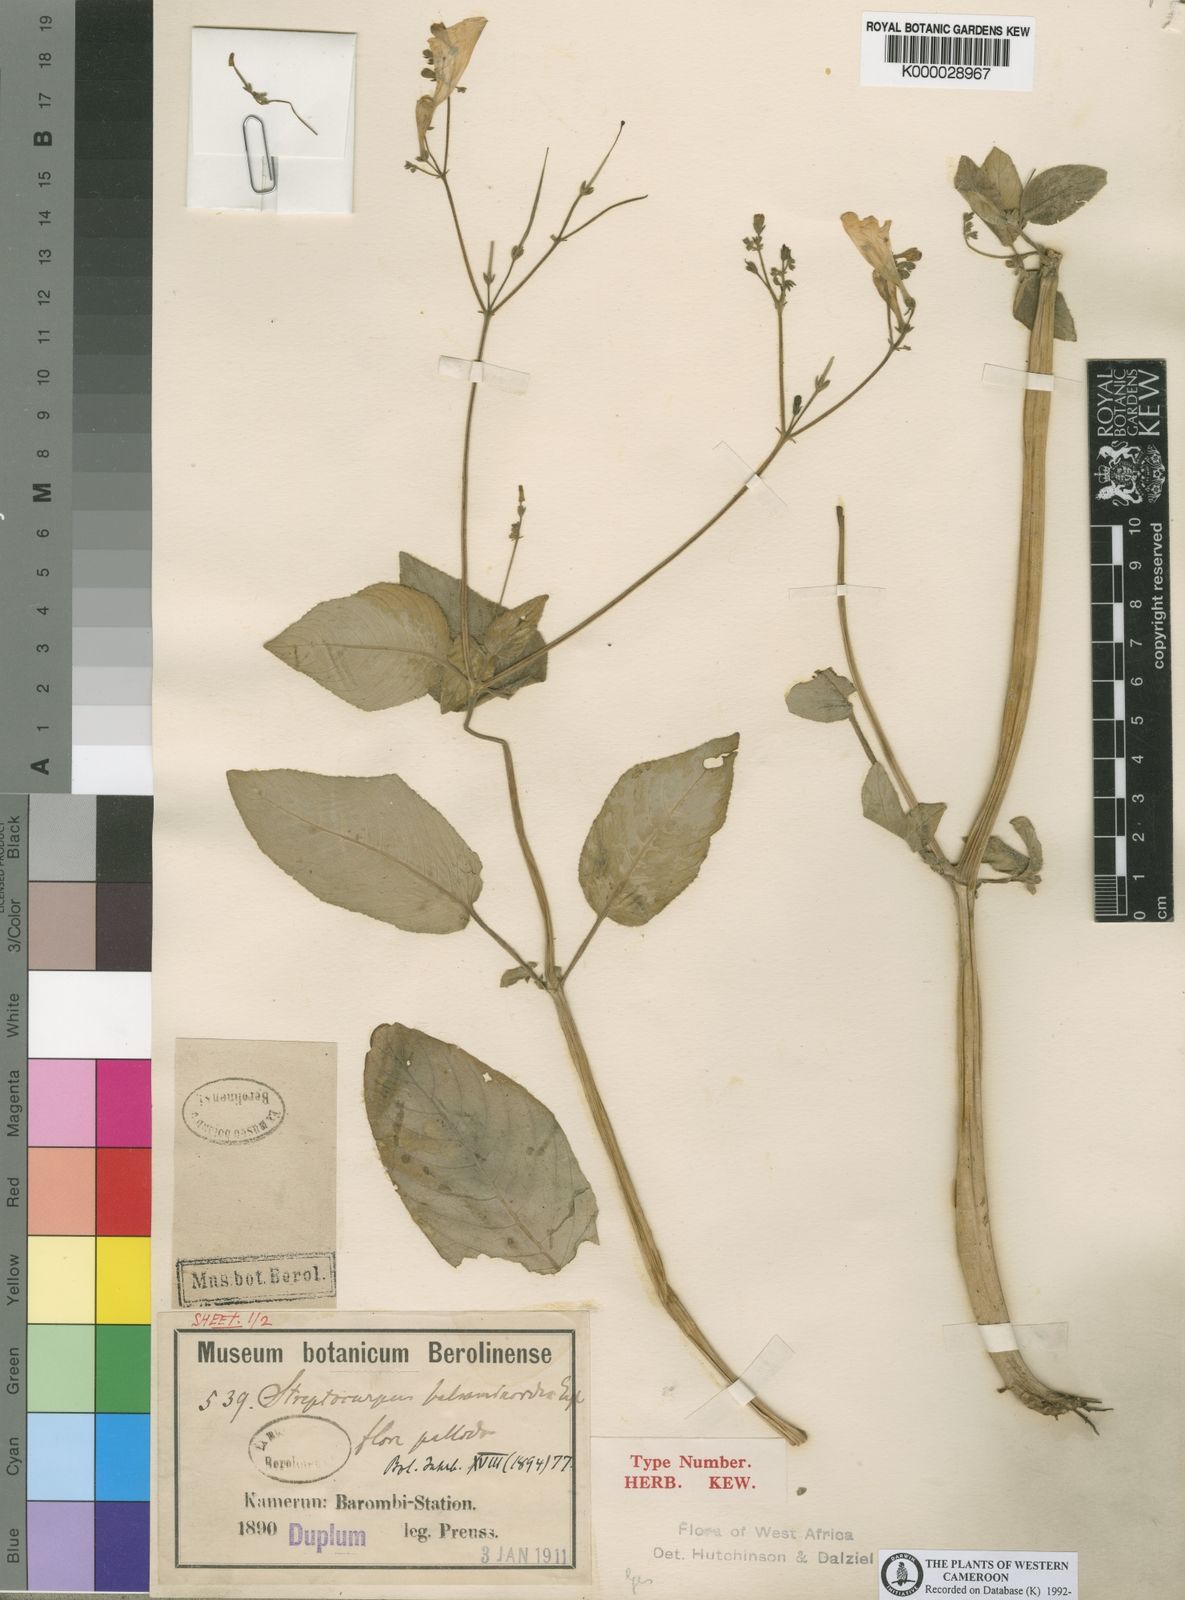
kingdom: Plantae
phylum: Tracheophyta
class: Magnoliopsida
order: Lamiales
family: Gesneriaceae
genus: Streptocarpus
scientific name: Streptocarpus nobilis
